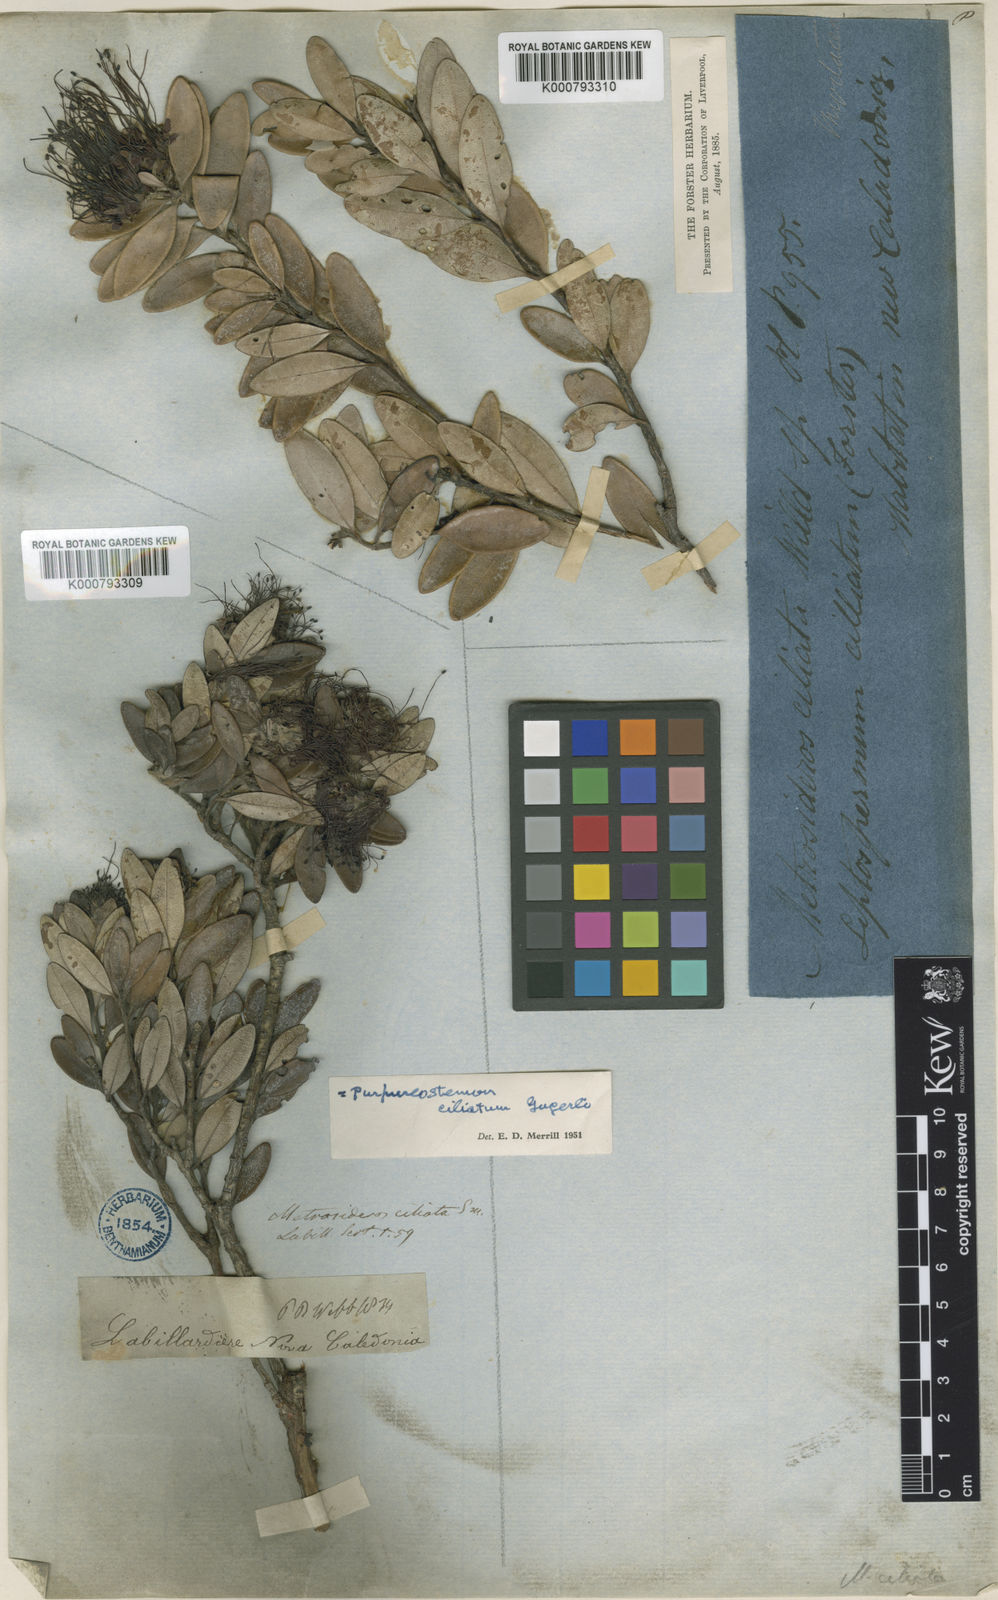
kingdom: Plantae
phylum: Tracheophyta
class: Magnoliopsida
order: Myrtales
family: Myrtaceae
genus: Purpureostemon
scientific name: Purpureostemon ciliatus
